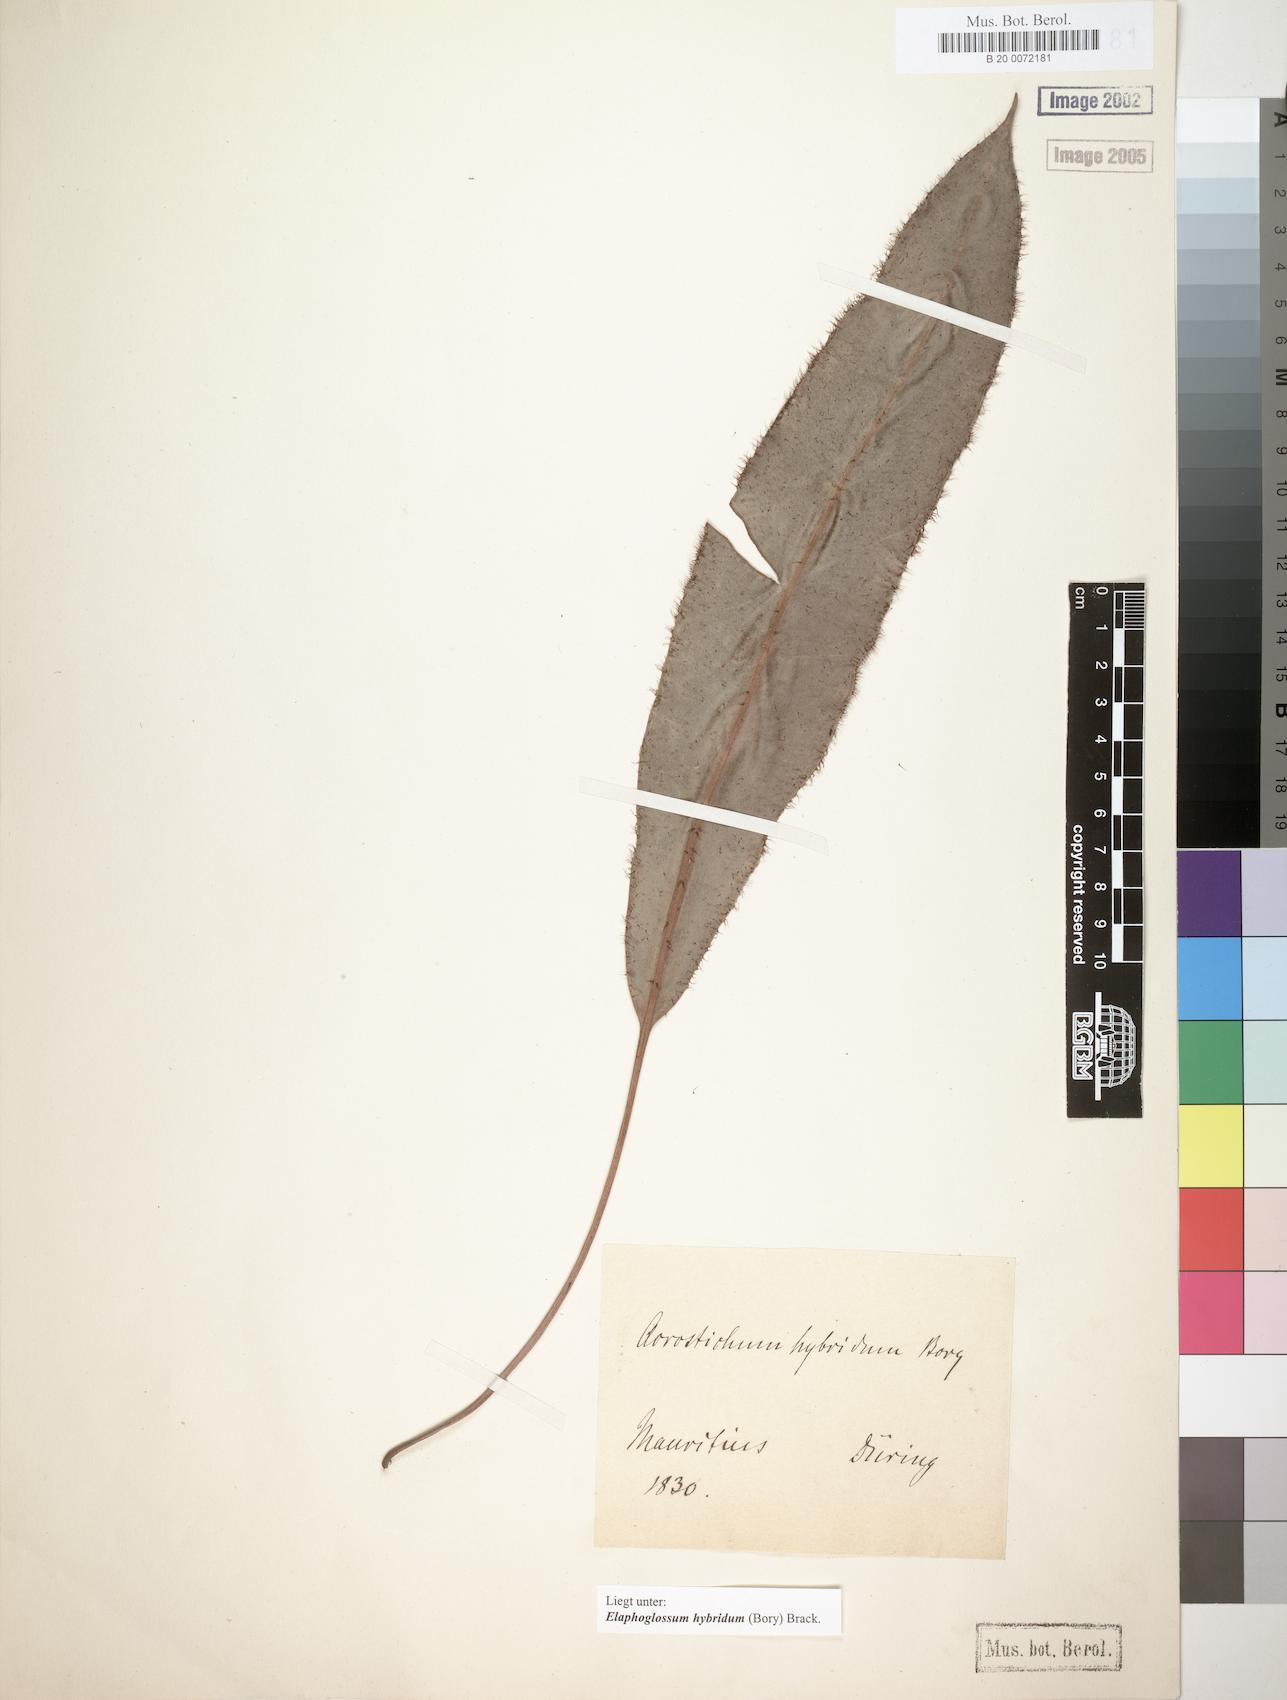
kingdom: Plantae
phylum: Tracheophyta
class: Polypodiopsida
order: Polypodiales
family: Dryopteridaceae
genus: Elaphoglossum
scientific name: Elaphoglossum hybridum
